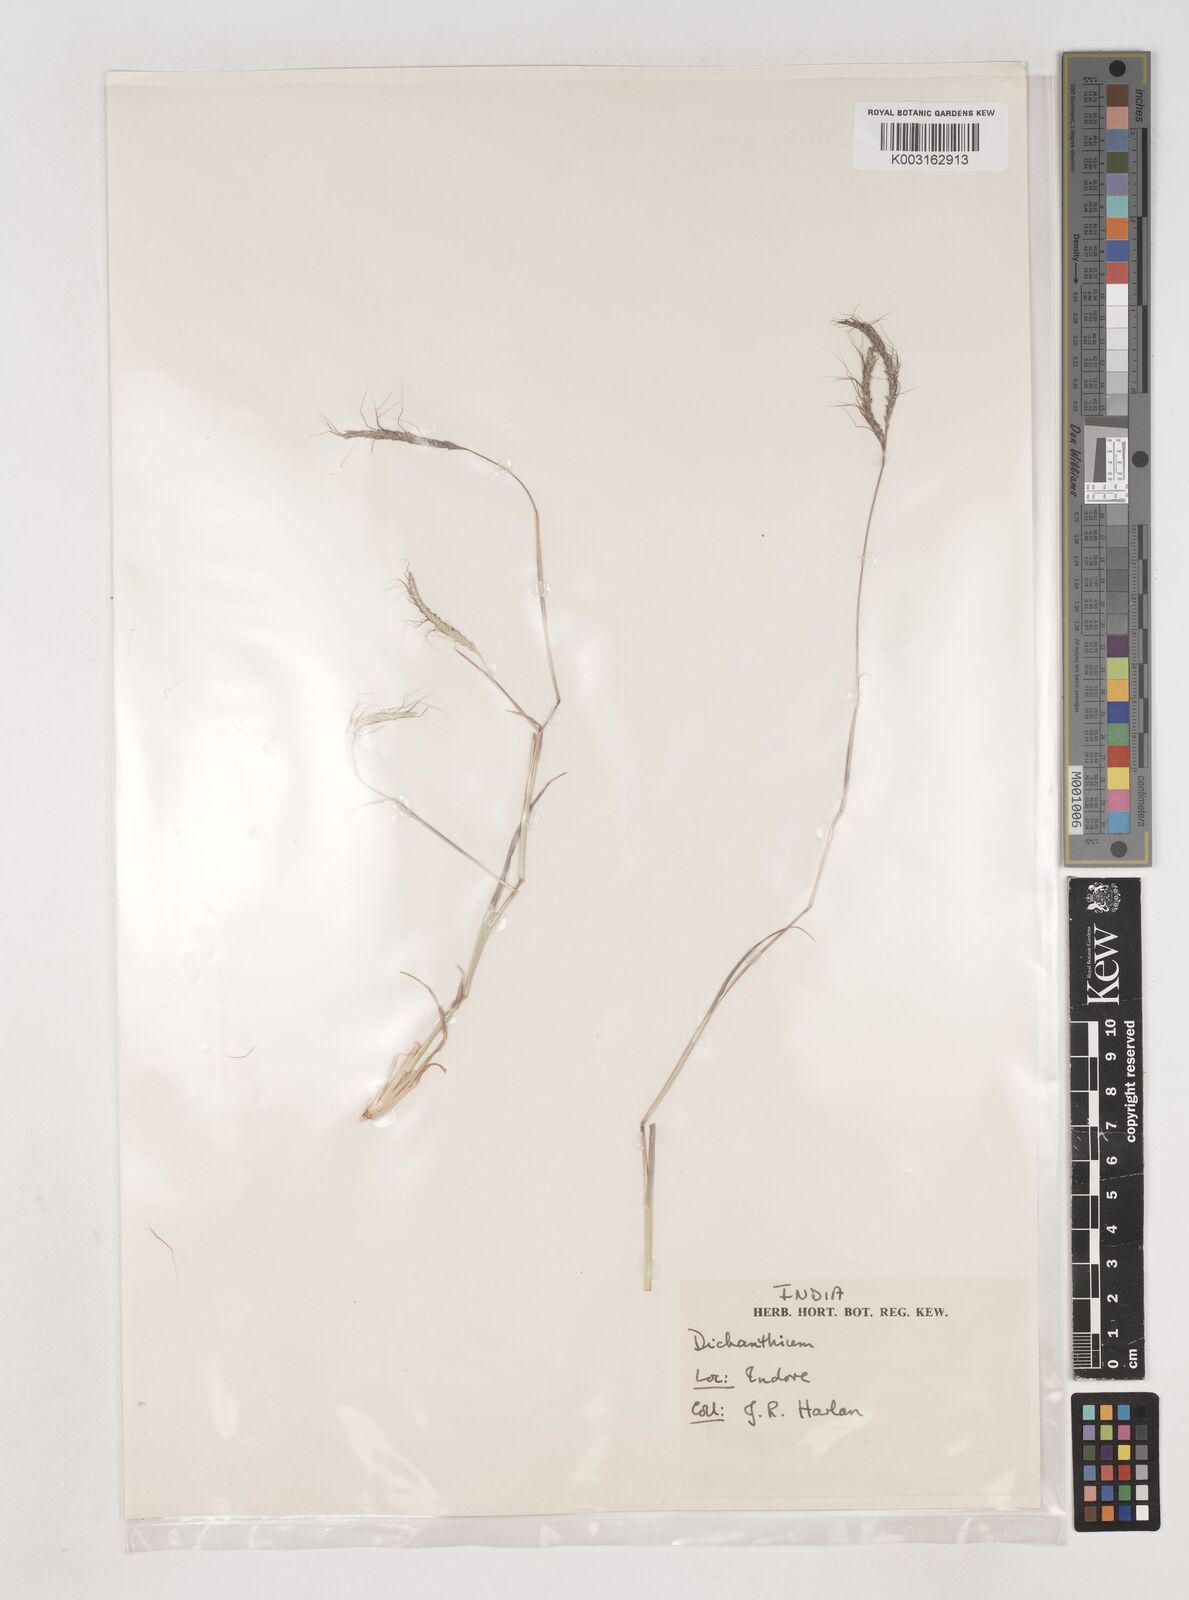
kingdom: Plantae
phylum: Tracheophyta
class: Liliopsida
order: Poales
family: Poaceae
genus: Dichanthium
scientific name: Dichanthium aristatum
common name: Angleton bluestem
